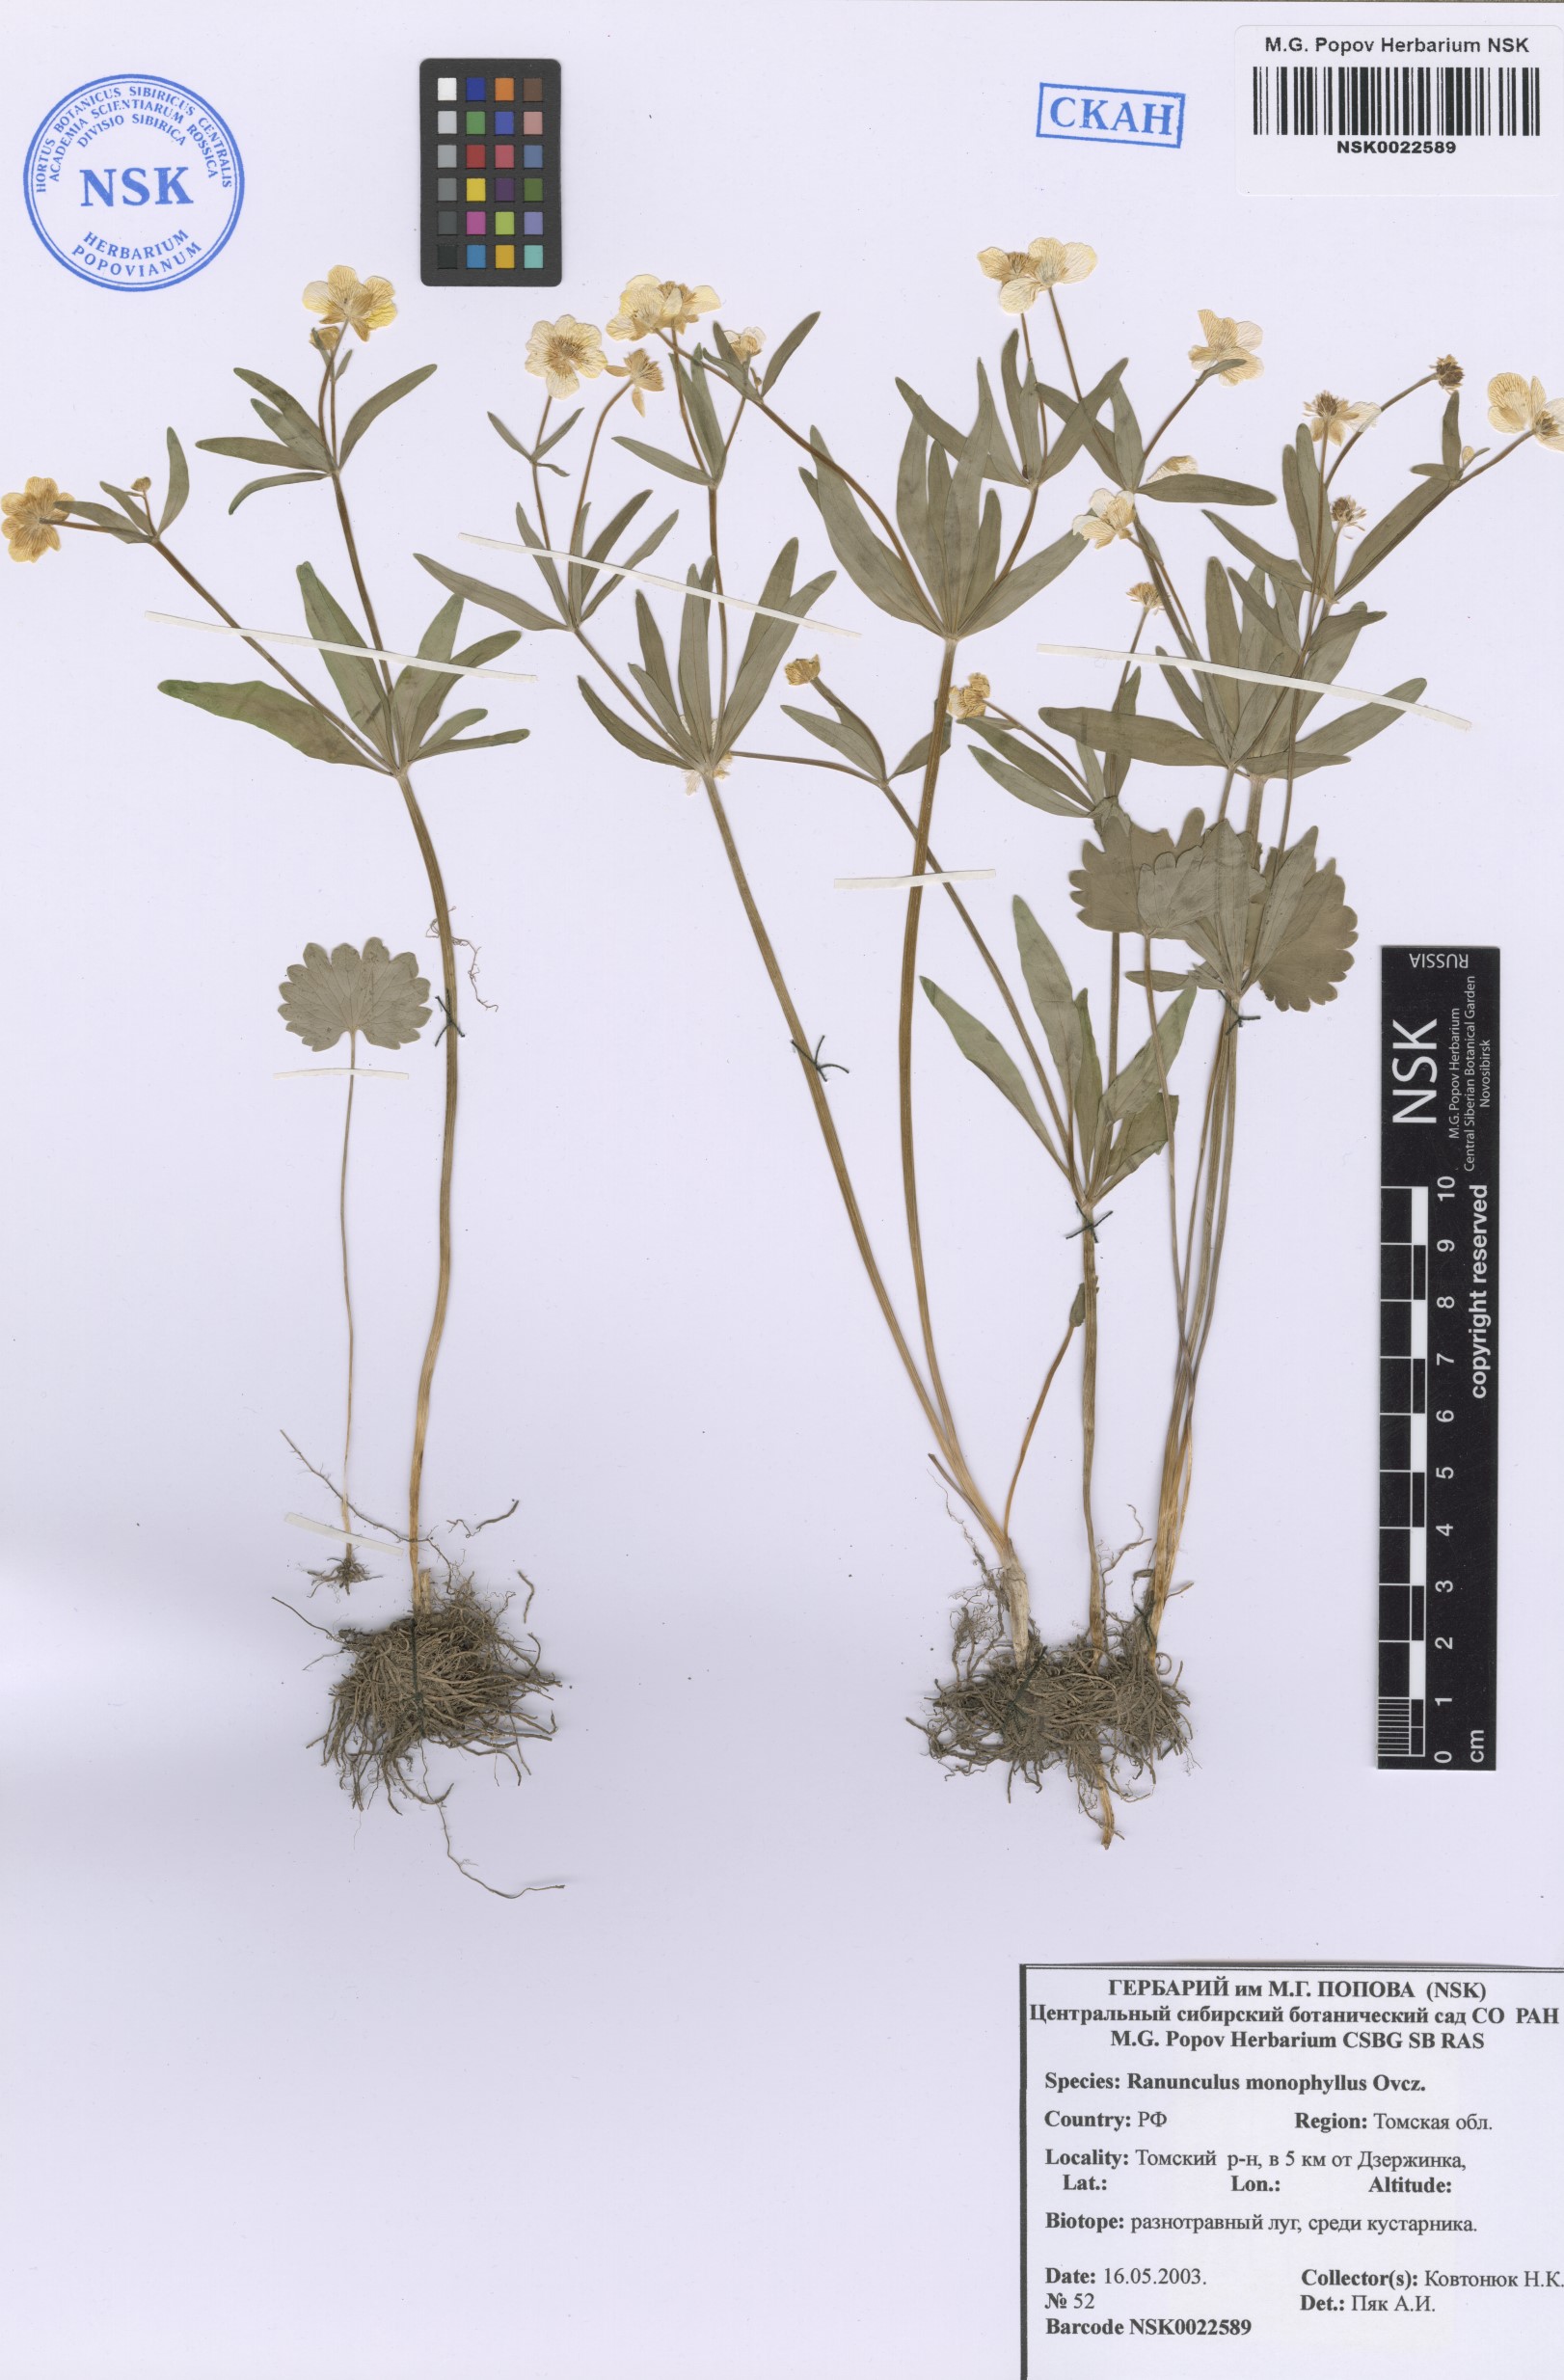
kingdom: Plantae
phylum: Tracheophyta
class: Magnoliopsida
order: Ranunculales
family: Ranunculaceae
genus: Ranunculus
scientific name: Ranunculus monophyllus
